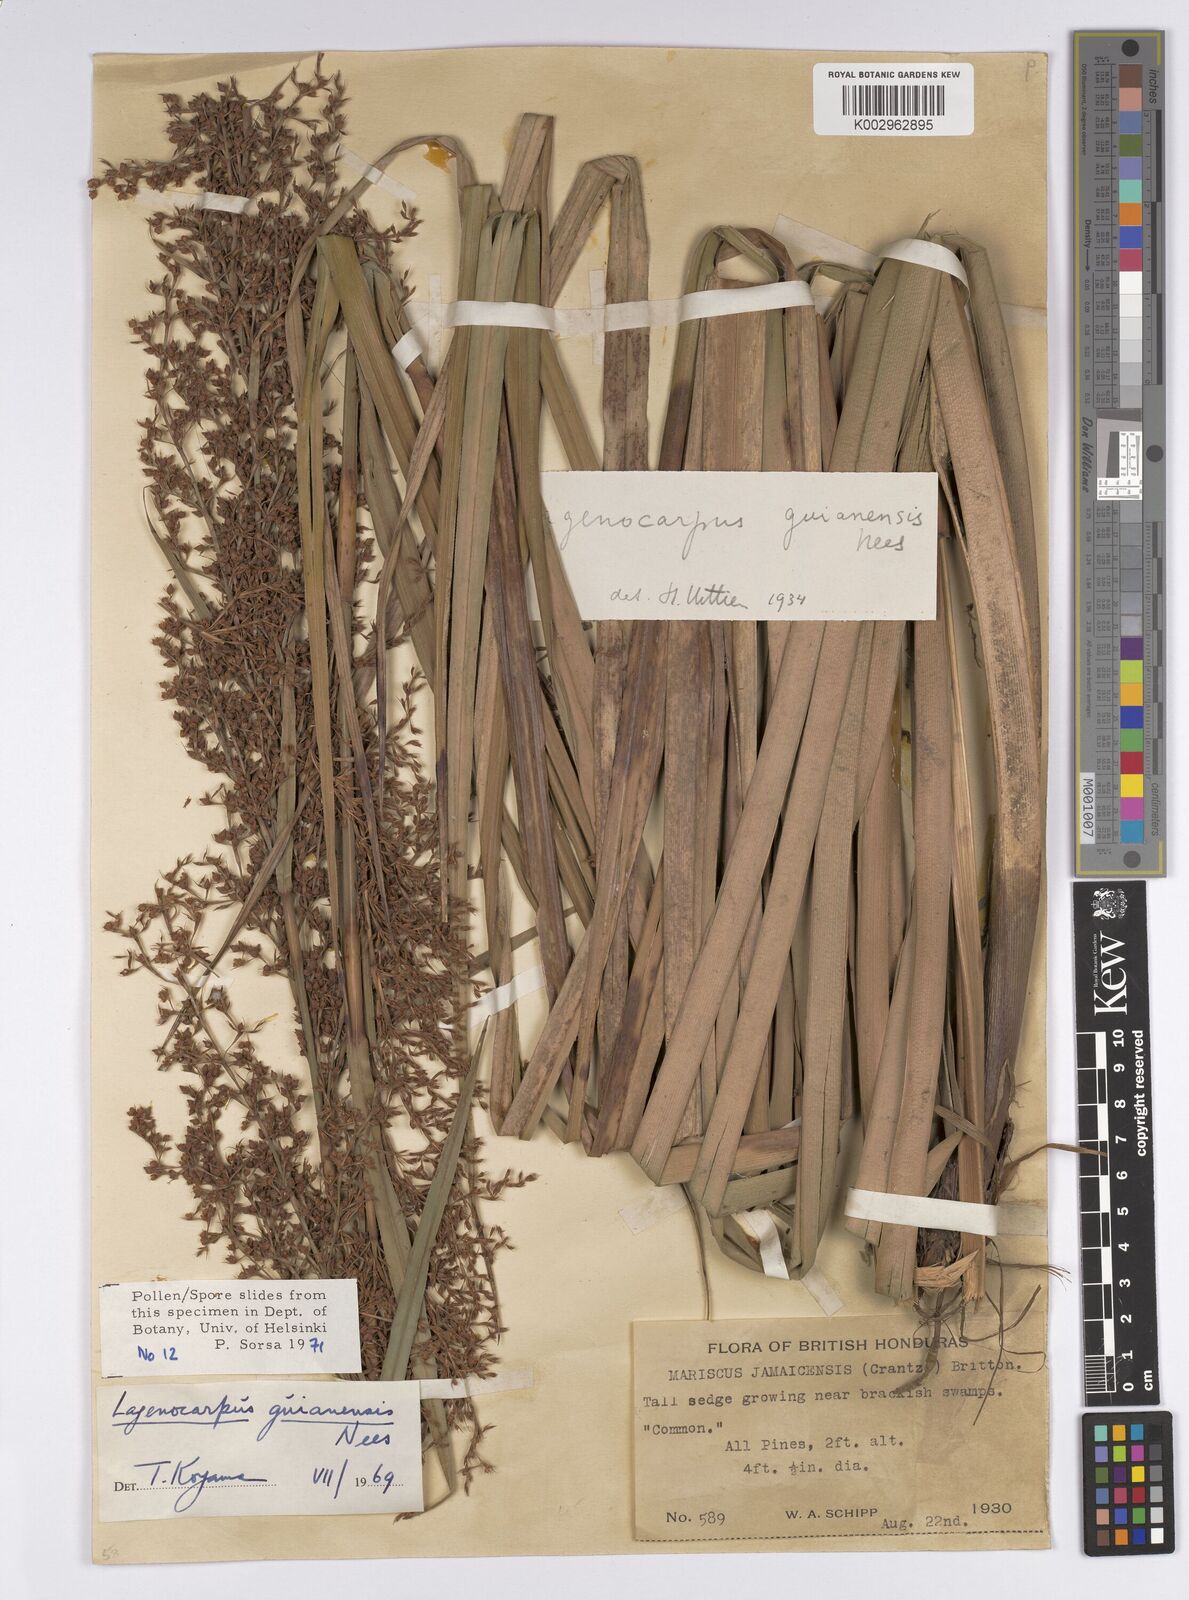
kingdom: Plantae
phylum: Tracheophyta
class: Liliopsida
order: Poales
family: Cyperaceae
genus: Lagenocarpus
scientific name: Lagenocarpus guianensis
